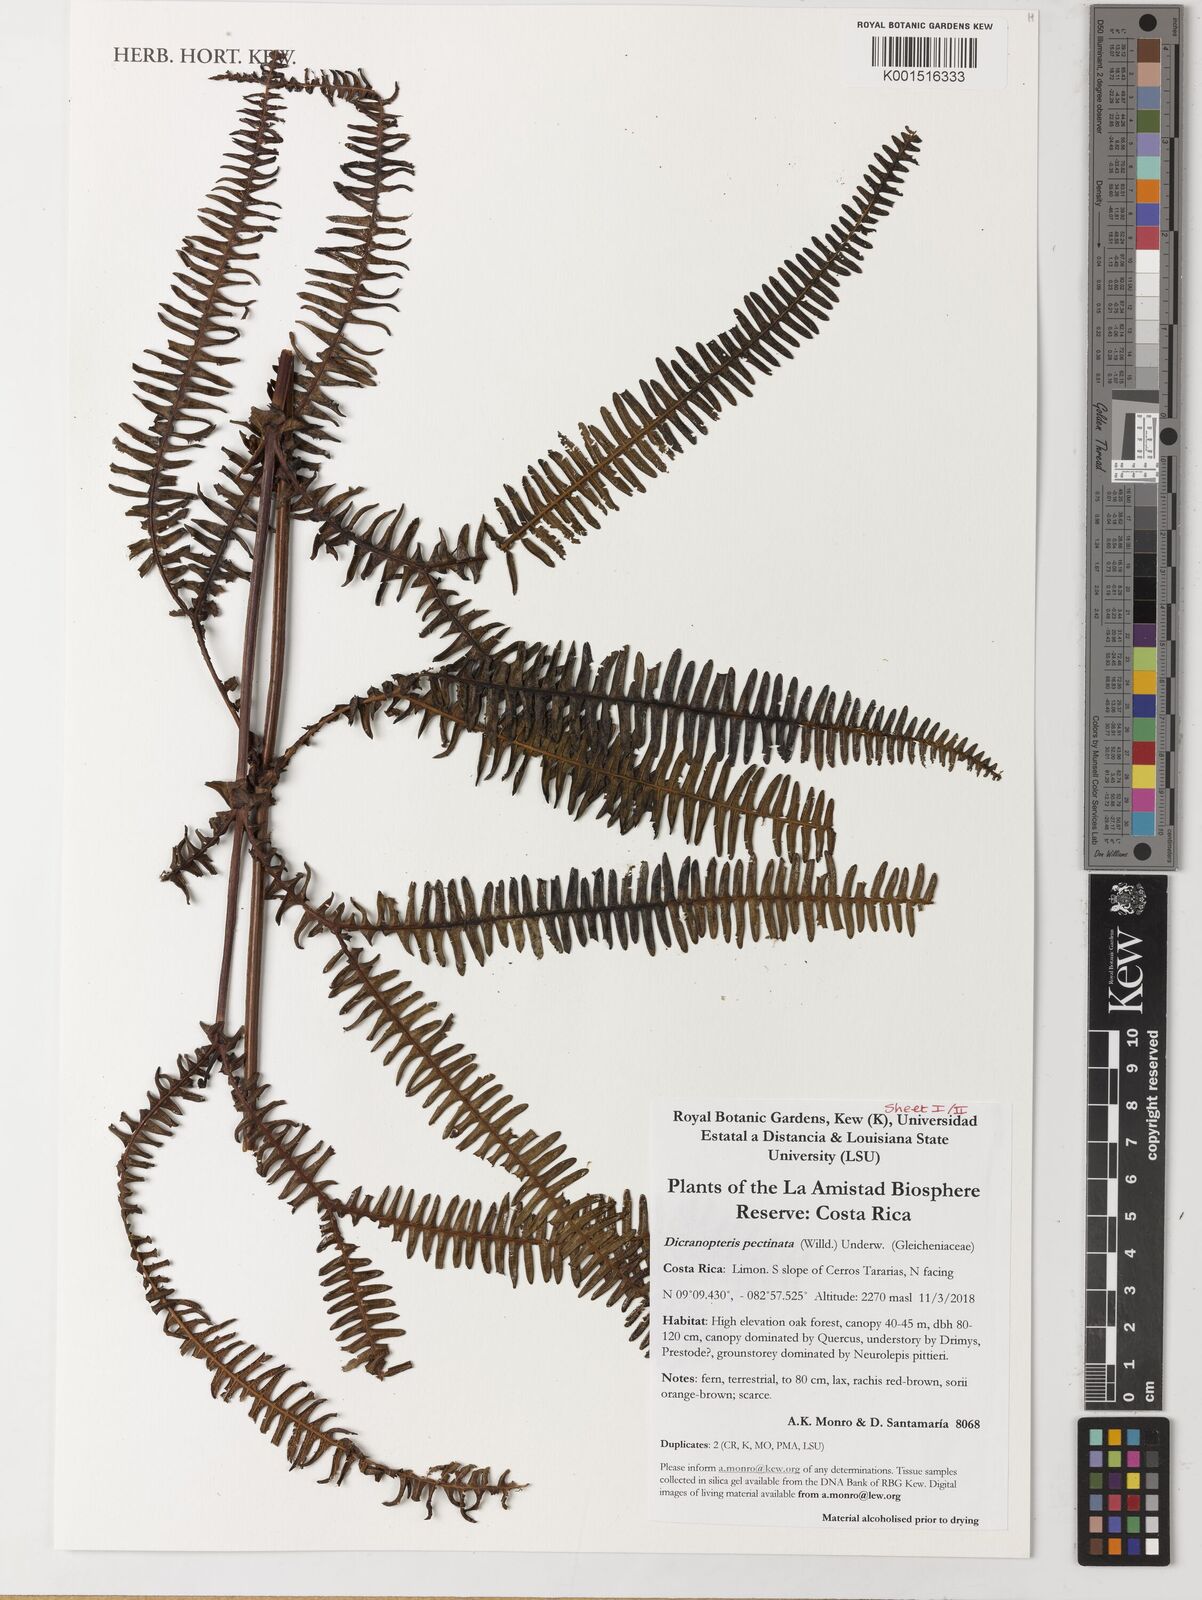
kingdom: Plantae
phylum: Tracheophyta
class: Polypodiopsida
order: Gleicheniales
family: Gleicheniaceae
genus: Gleichenella
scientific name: Gleichenella pectinata
